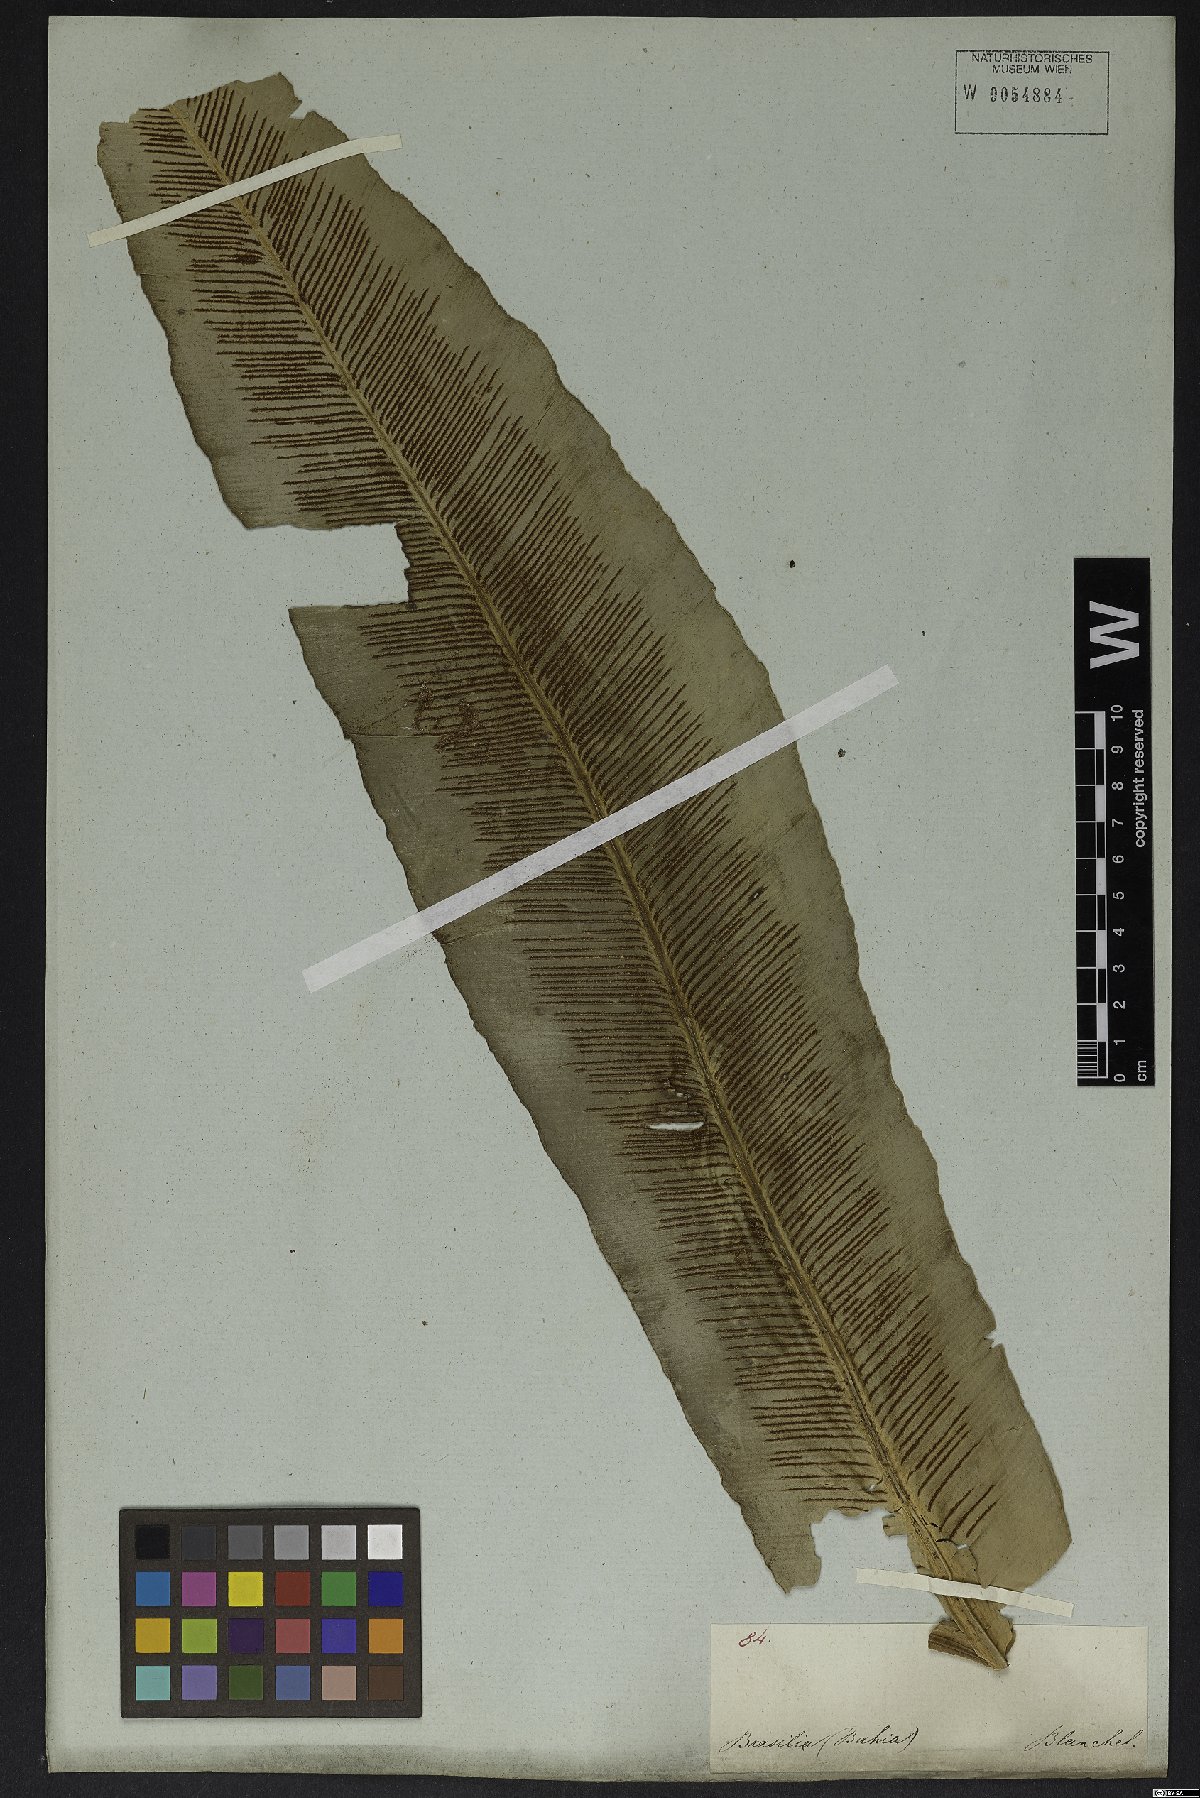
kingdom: Plantae
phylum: Tracheophyta
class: Polypodiopsida
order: Polypodiales
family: Aspleniaceae
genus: Asplenium
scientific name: Asplenium serratum
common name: Wild birdnest fern
